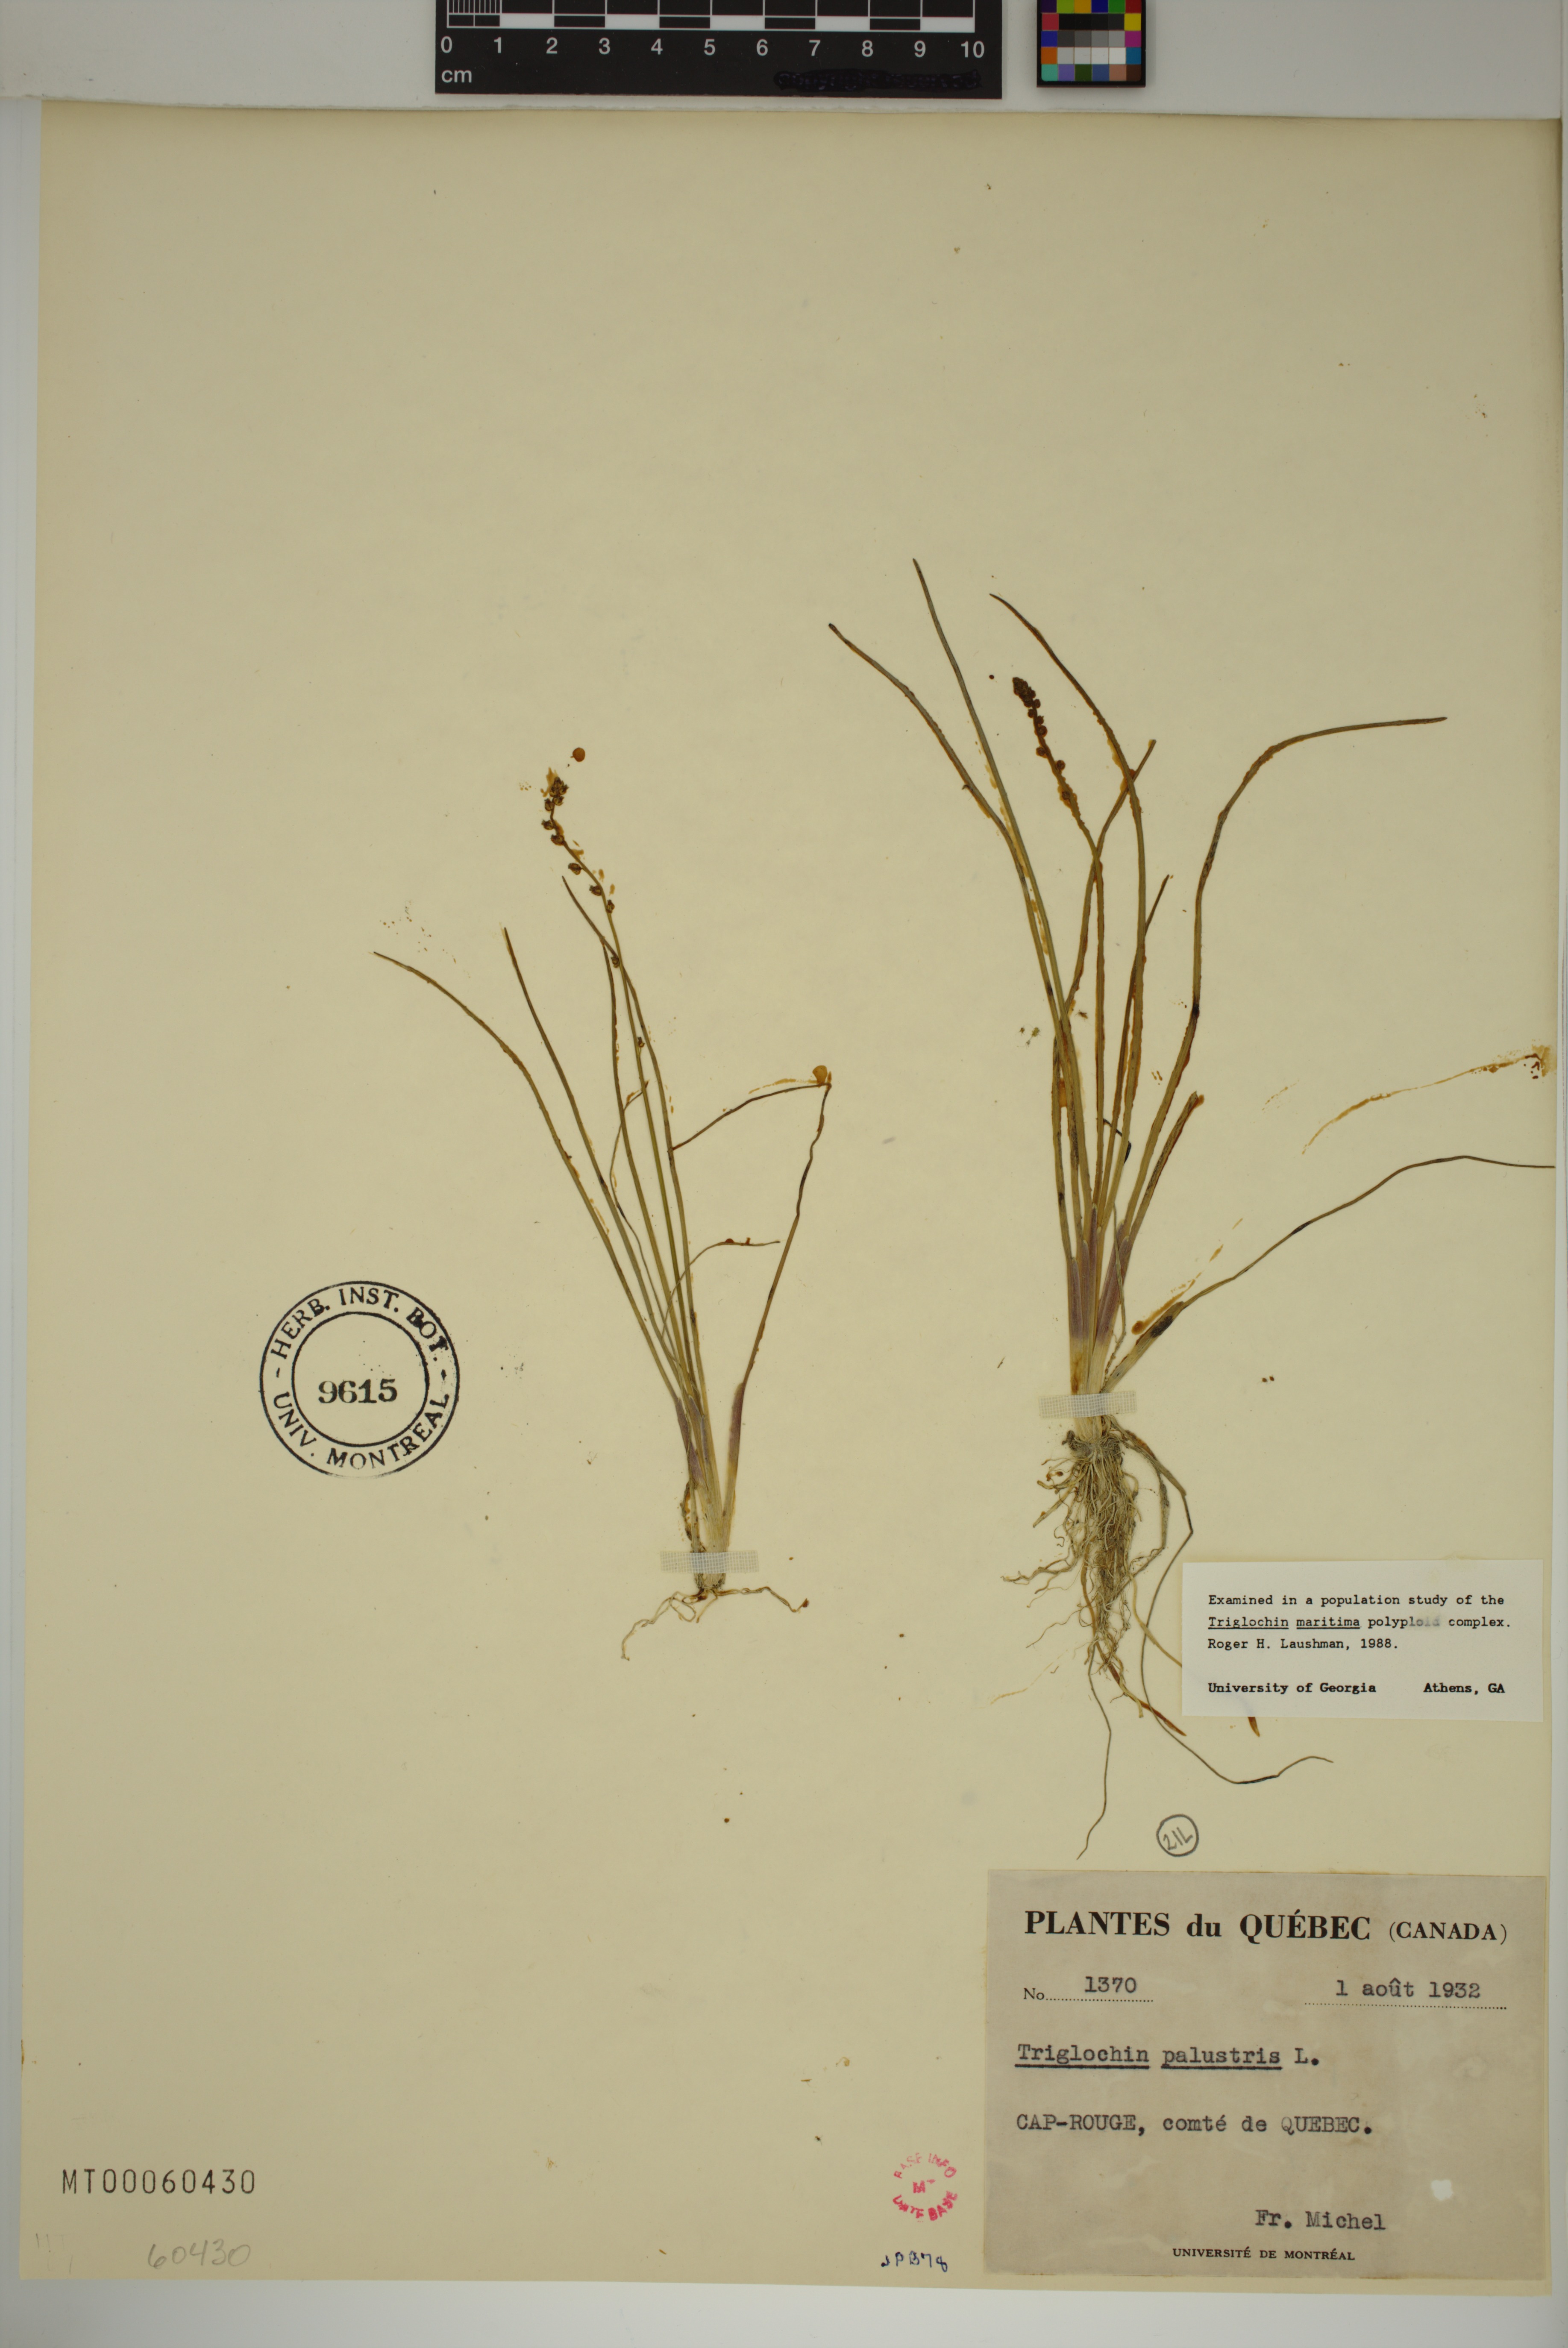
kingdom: Plantae
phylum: Tracheophyta
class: Liliopsida
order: Alismatales
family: Juncaginaceae
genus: Triglochin
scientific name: Triglochin palustris
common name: Marsh arrowgrass
